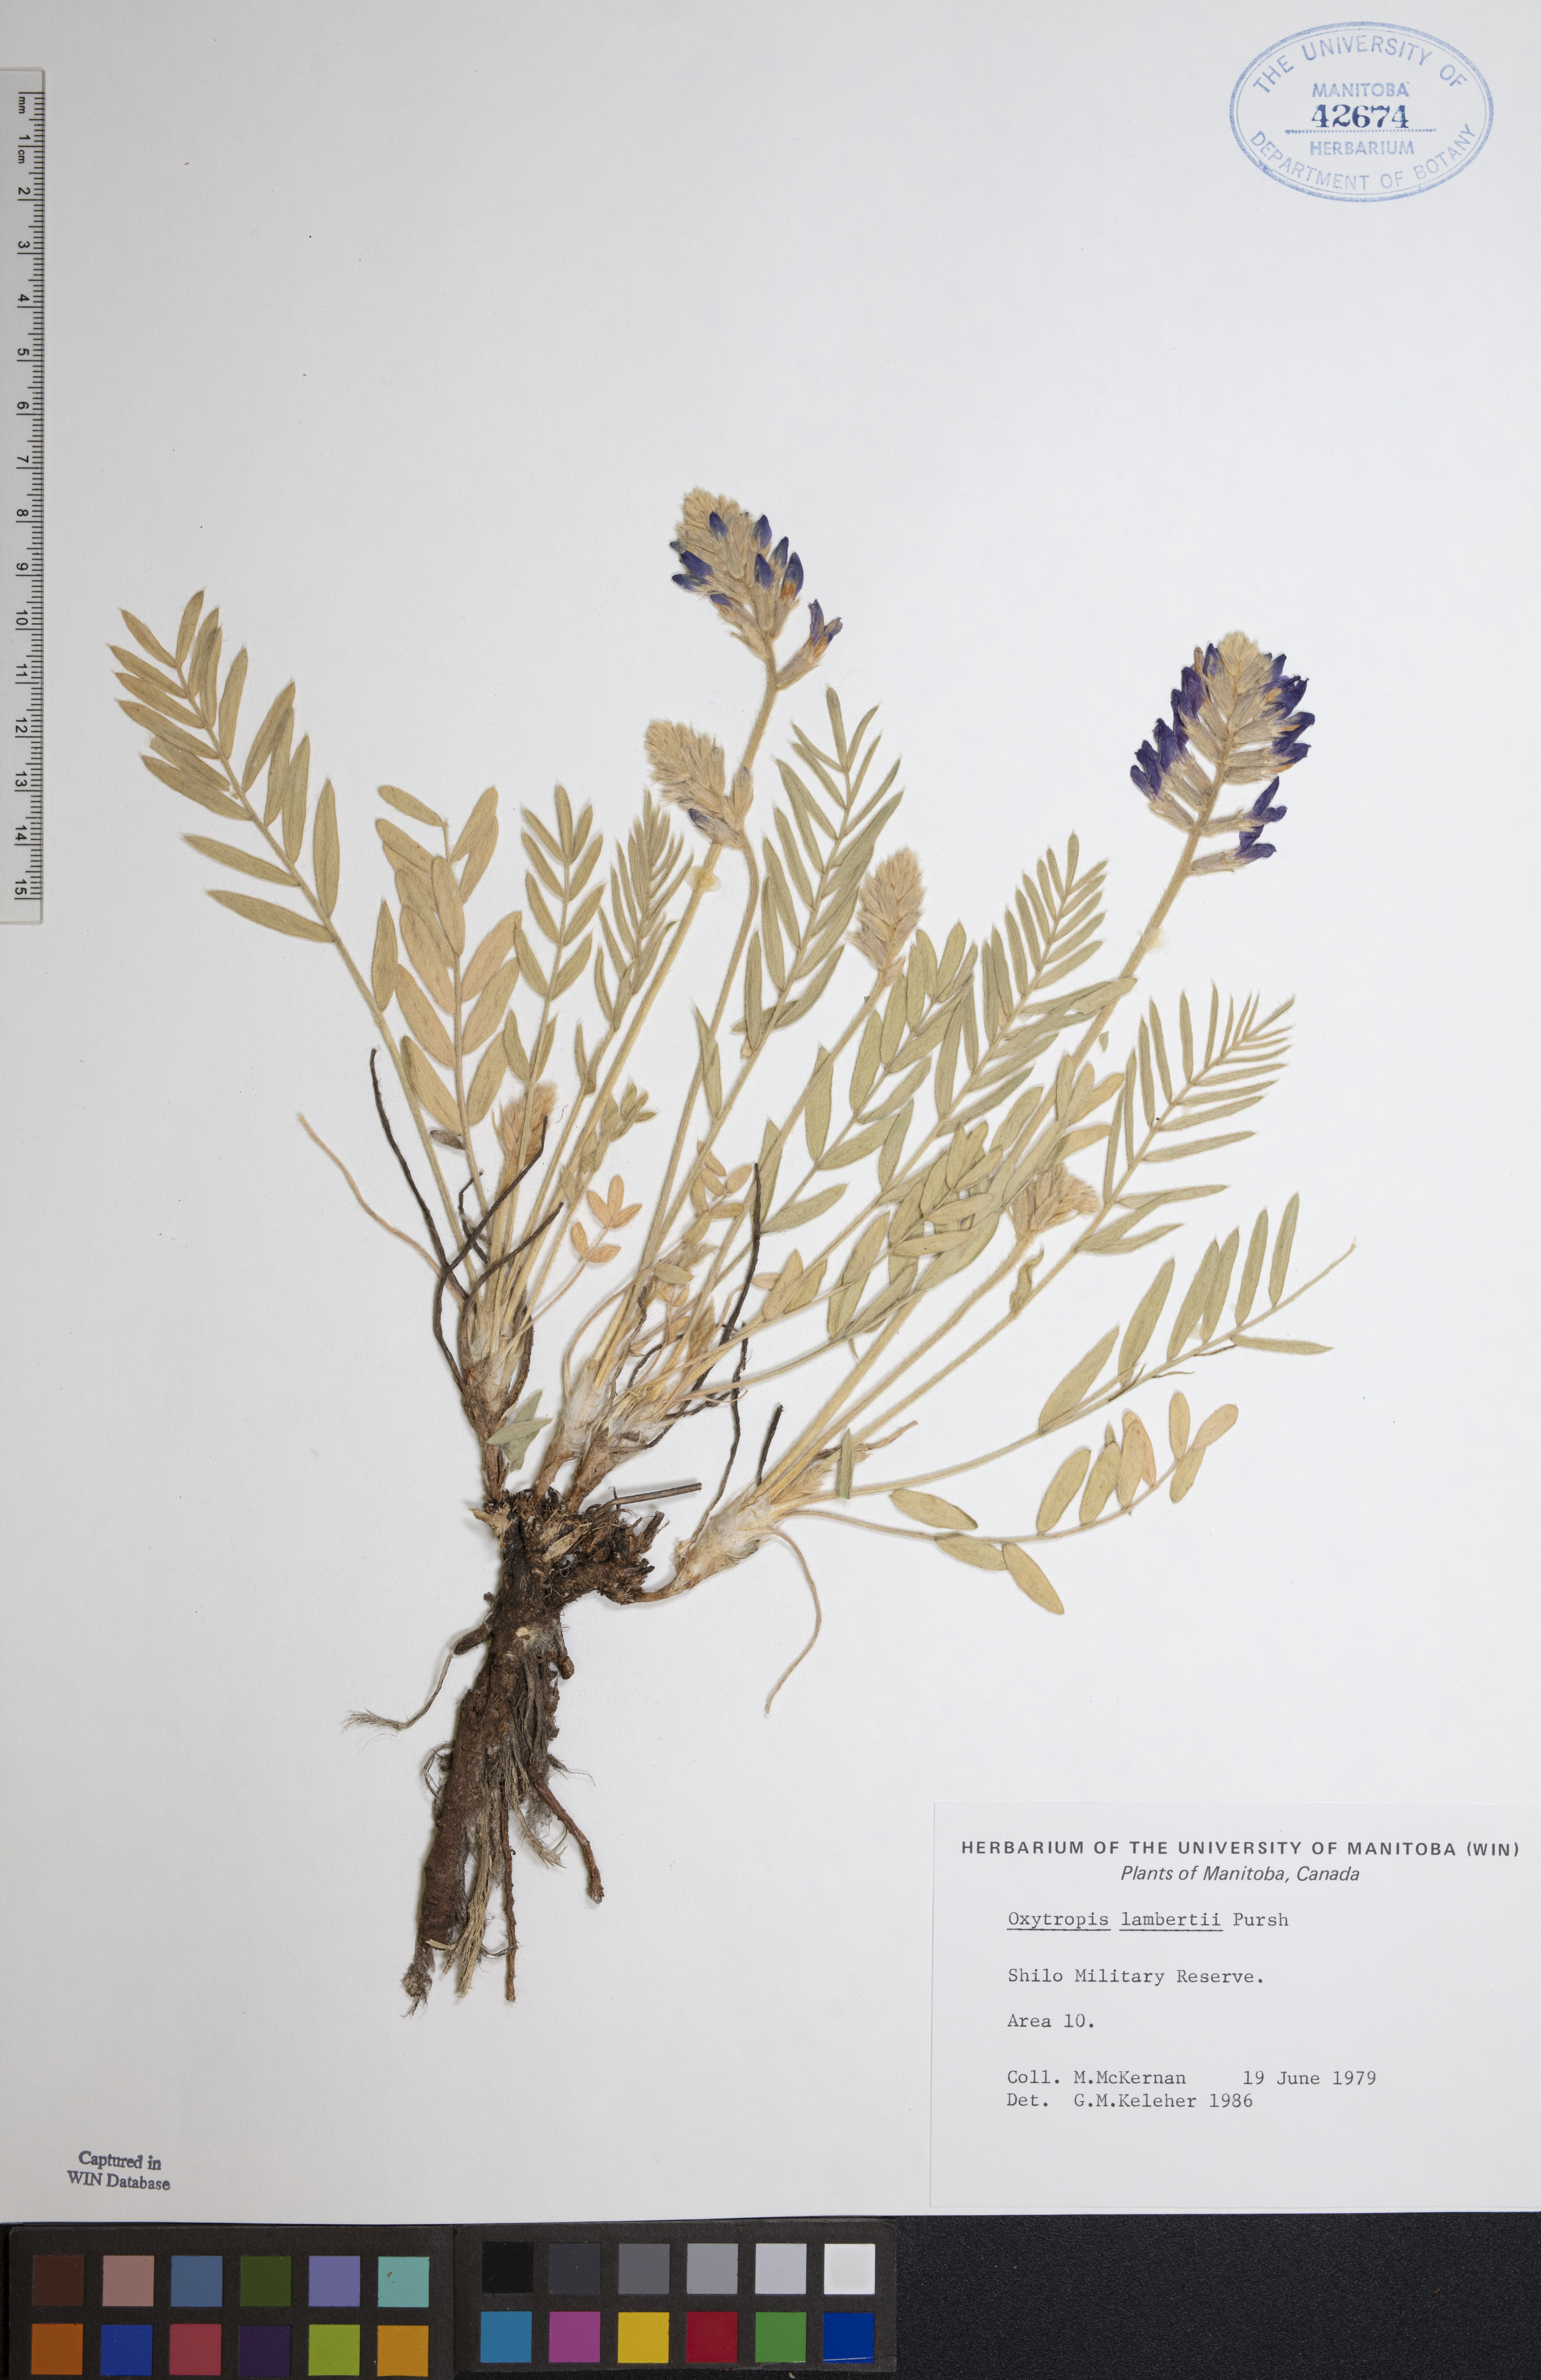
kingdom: Plantae
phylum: Tracheophyta
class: Magnoliopsida
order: Fabales
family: Fabaceae
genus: Oxytropis
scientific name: Oxytropis lambertii
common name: Purple locoweed
